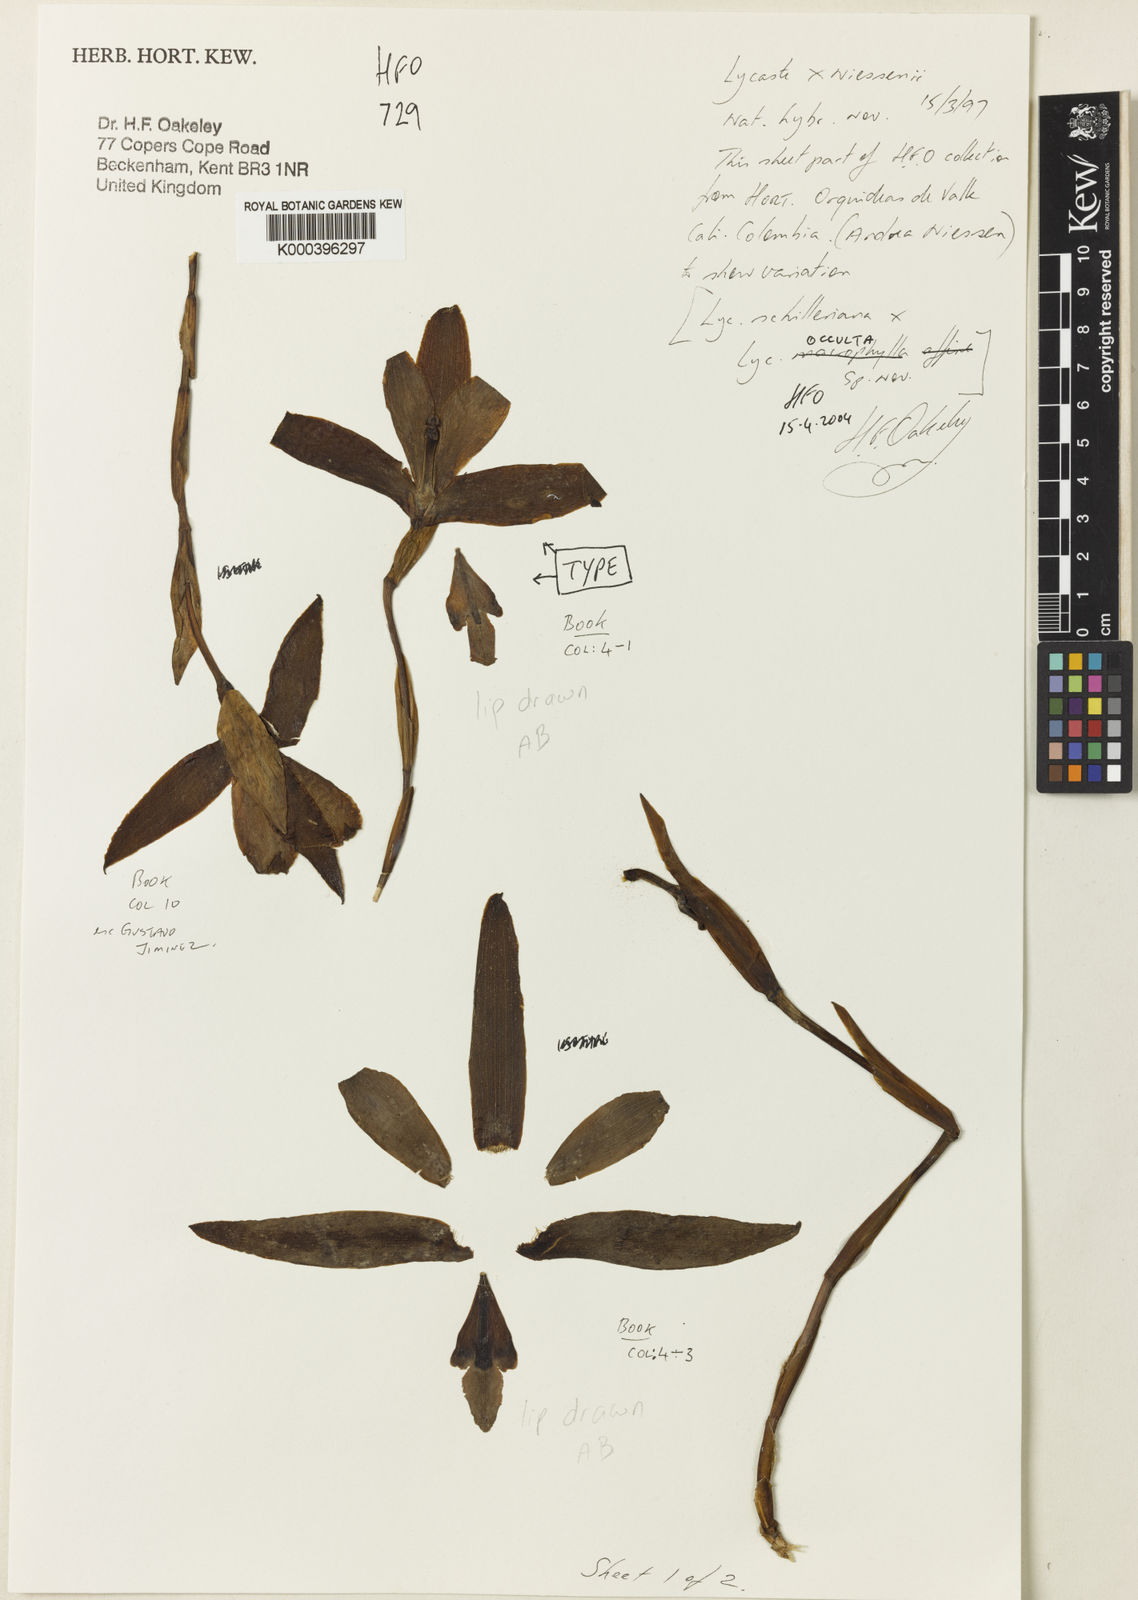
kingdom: Plantae
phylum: Tracheophyta
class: Liliopsida
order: Asparagales
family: Orchidaceae
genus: Lycaste
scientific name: Lycaste niesseniae
